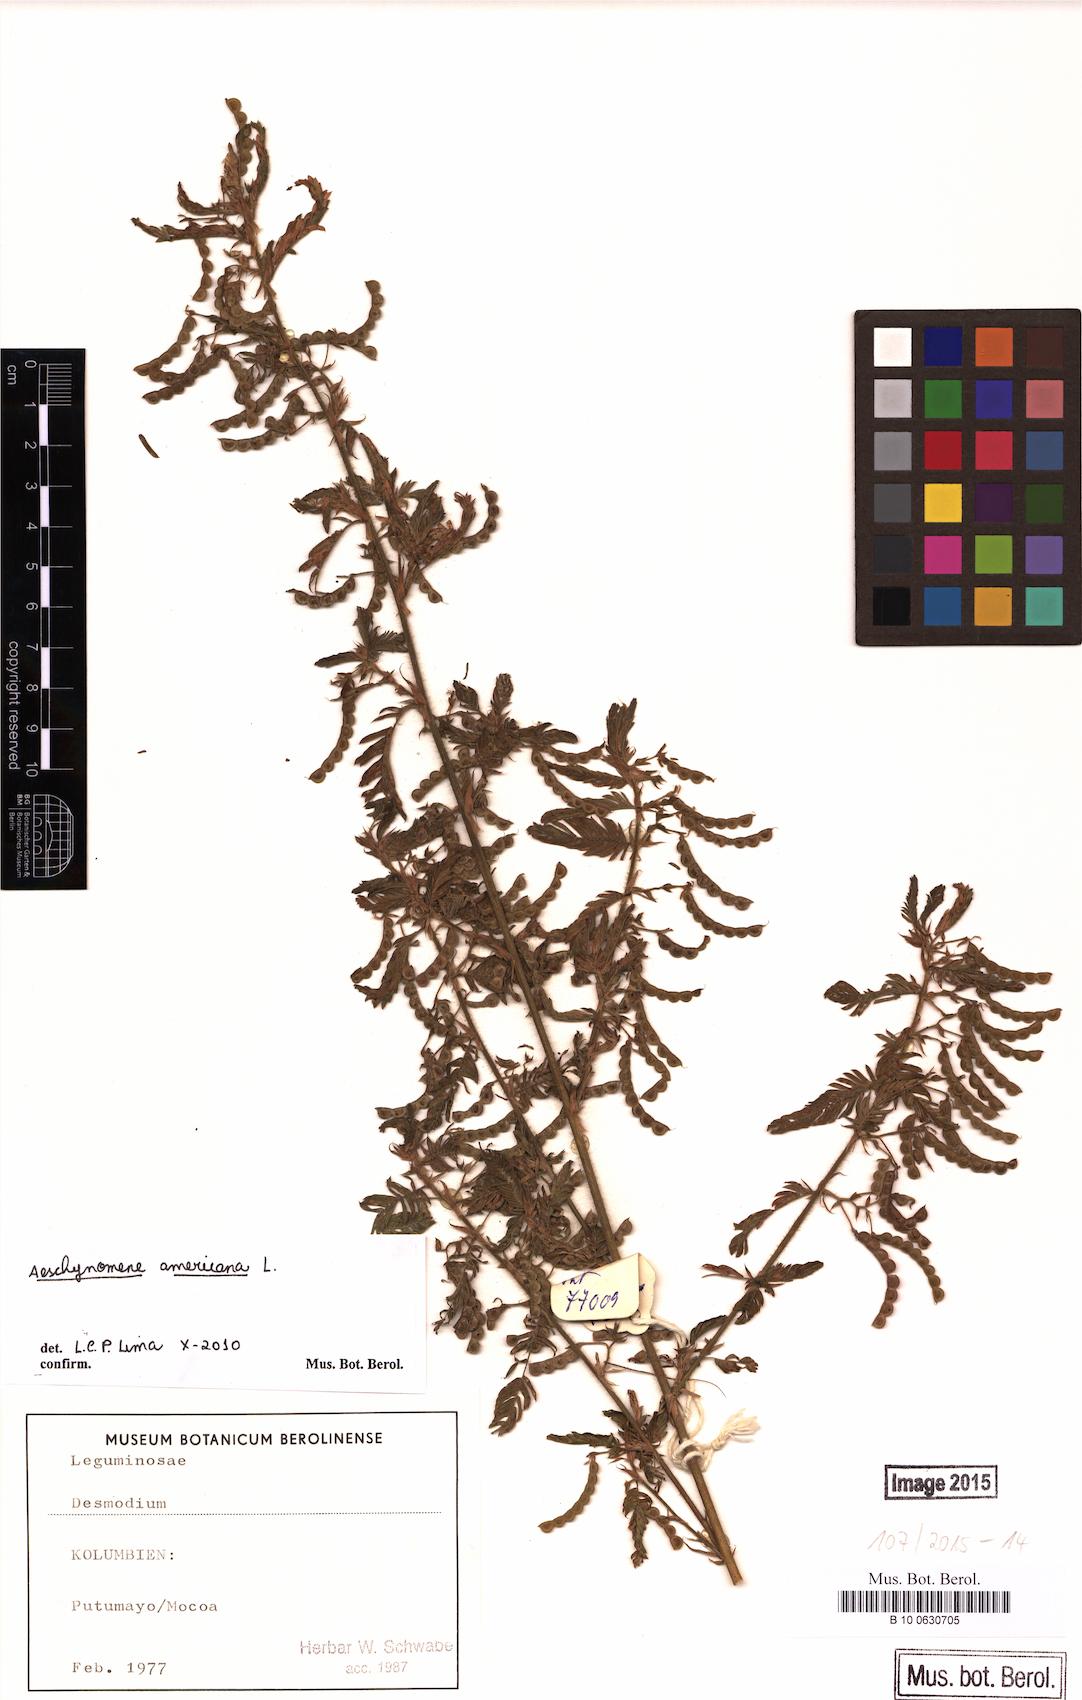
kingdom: Plantae
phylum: Tracheophyta
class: Magnoliopsida
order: Fabales
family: Fabaceae
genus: Aeschynomene
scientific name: Aeschynomene americana
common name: Joint-vetch
